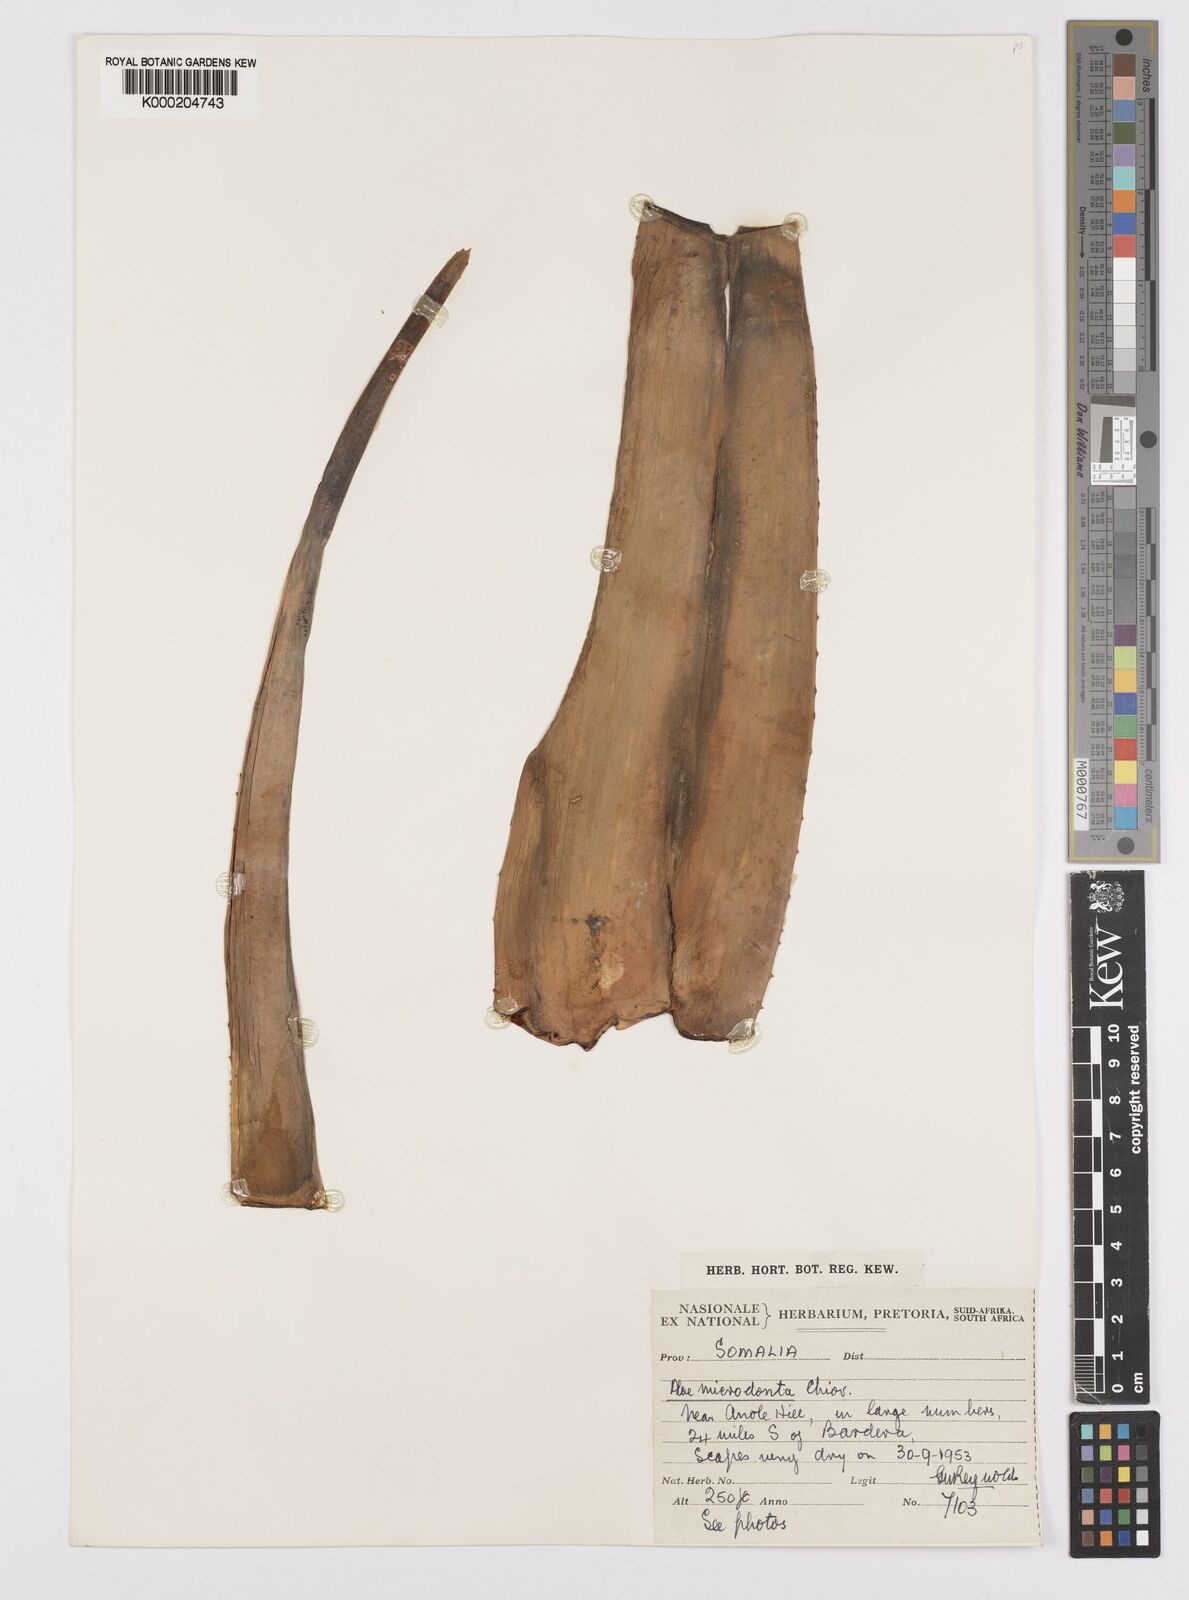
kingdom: Plantae
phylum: Tracheophyta
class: Liliopsida
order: Asparagales
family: Asphodelaceae
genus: Aloe
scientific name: Aloe microdonta
